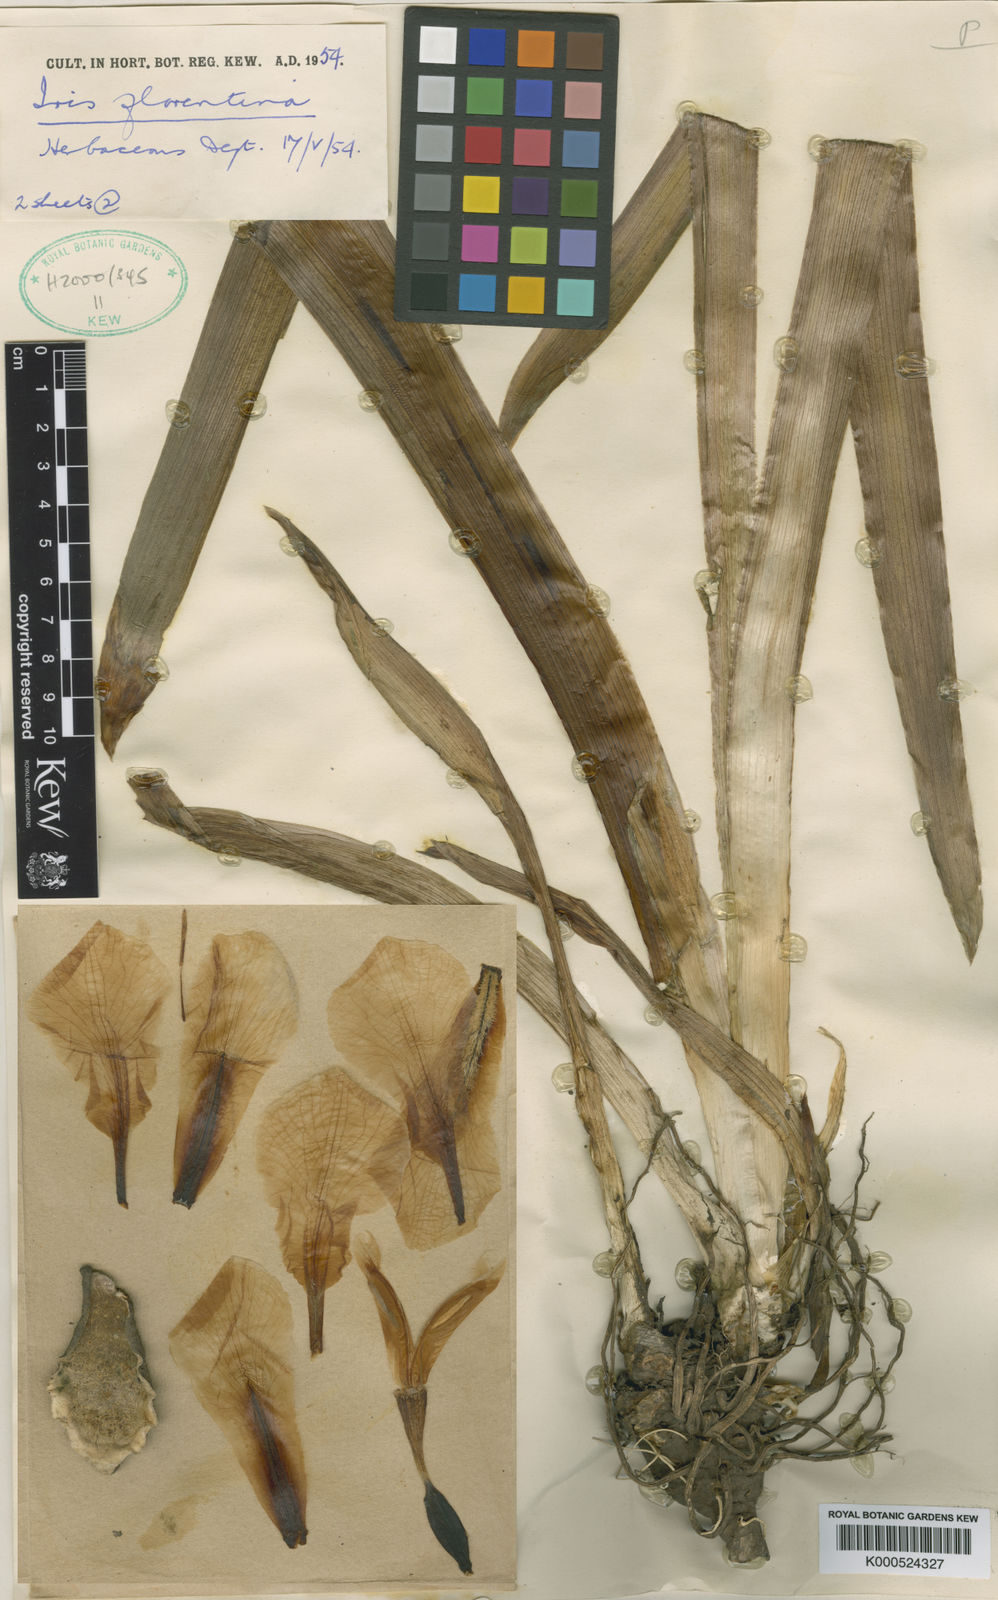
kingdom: Plantae
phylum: Tracheophyta
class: Liliopsida
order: Asparagales
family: Iridaceae
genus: Iris
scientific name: Iris germanica
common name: German iris
